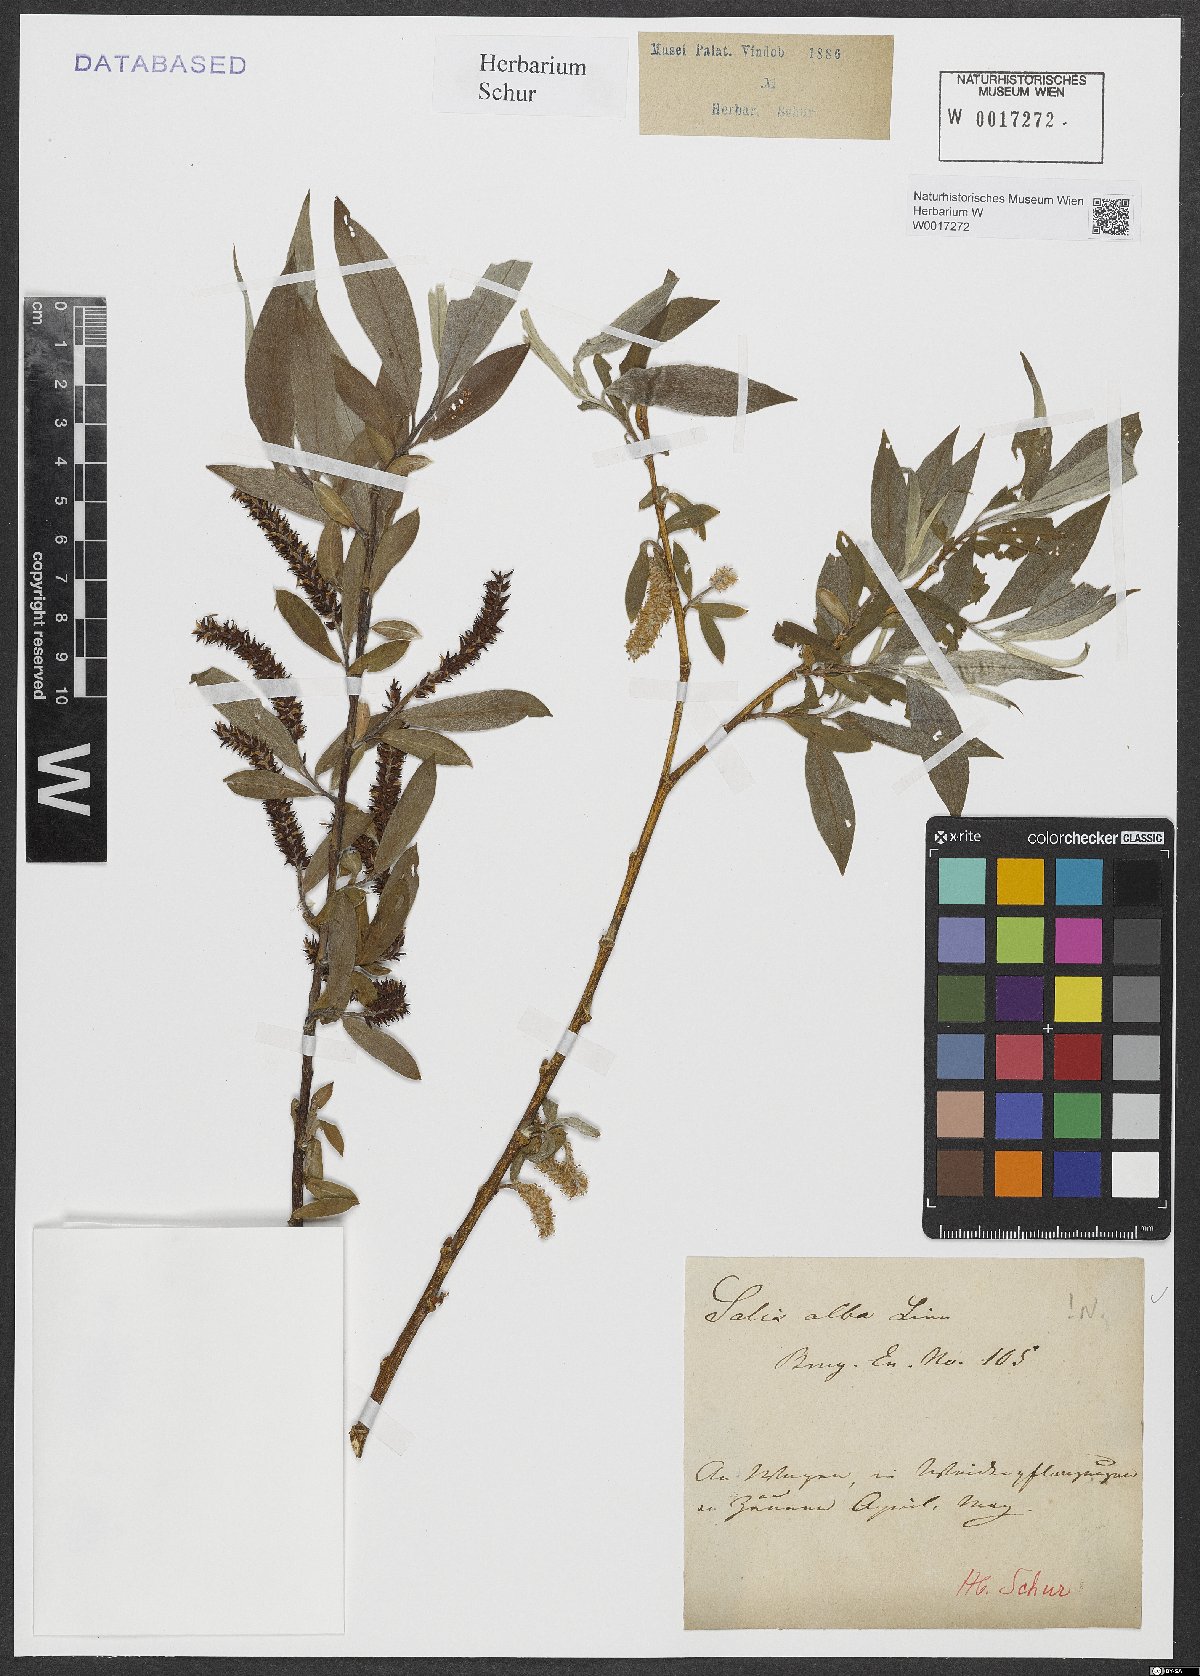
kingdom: Plantae
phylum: Tracheophyta
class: Magnoliopsida
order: Malpighiales
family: Salicaceae
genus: Salix
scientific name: Salix alba
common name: White willow
